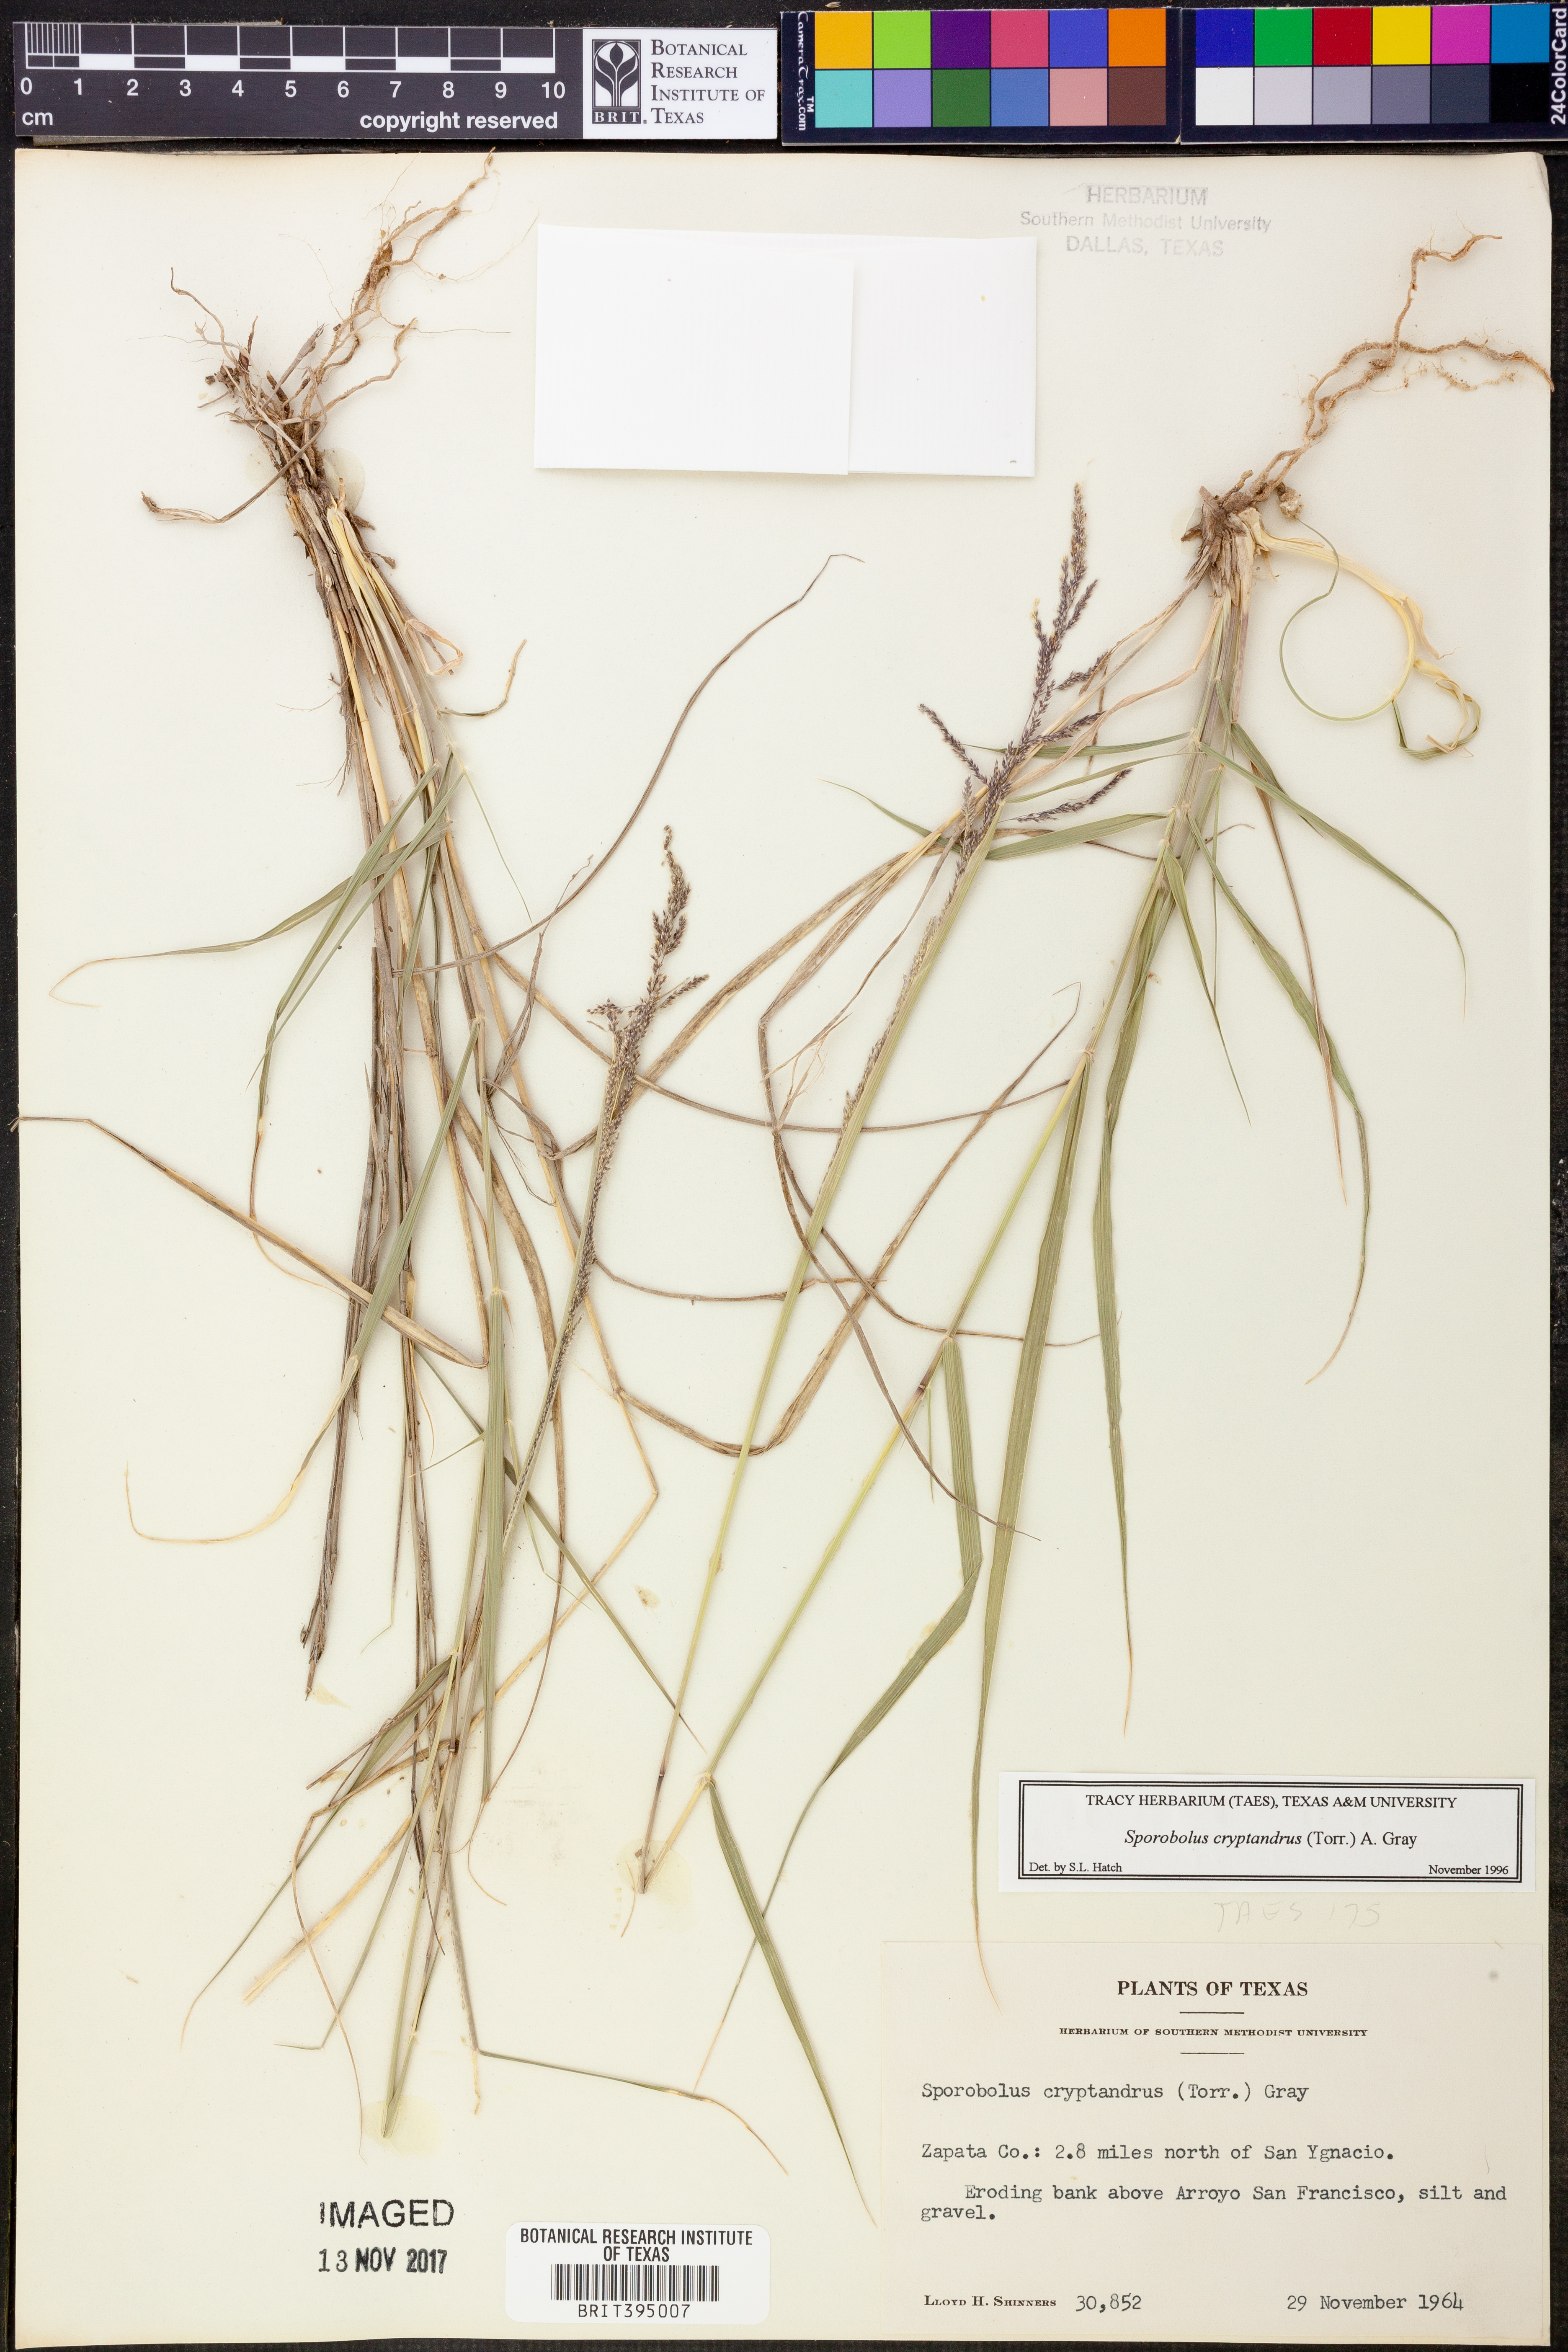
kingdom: Plantae
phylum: Tracheophyta
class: Liliopsida
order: Poales
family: Poaceae
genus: Sporobolus
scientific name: Sporobolus cryptandrus
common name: Sand dropseed
